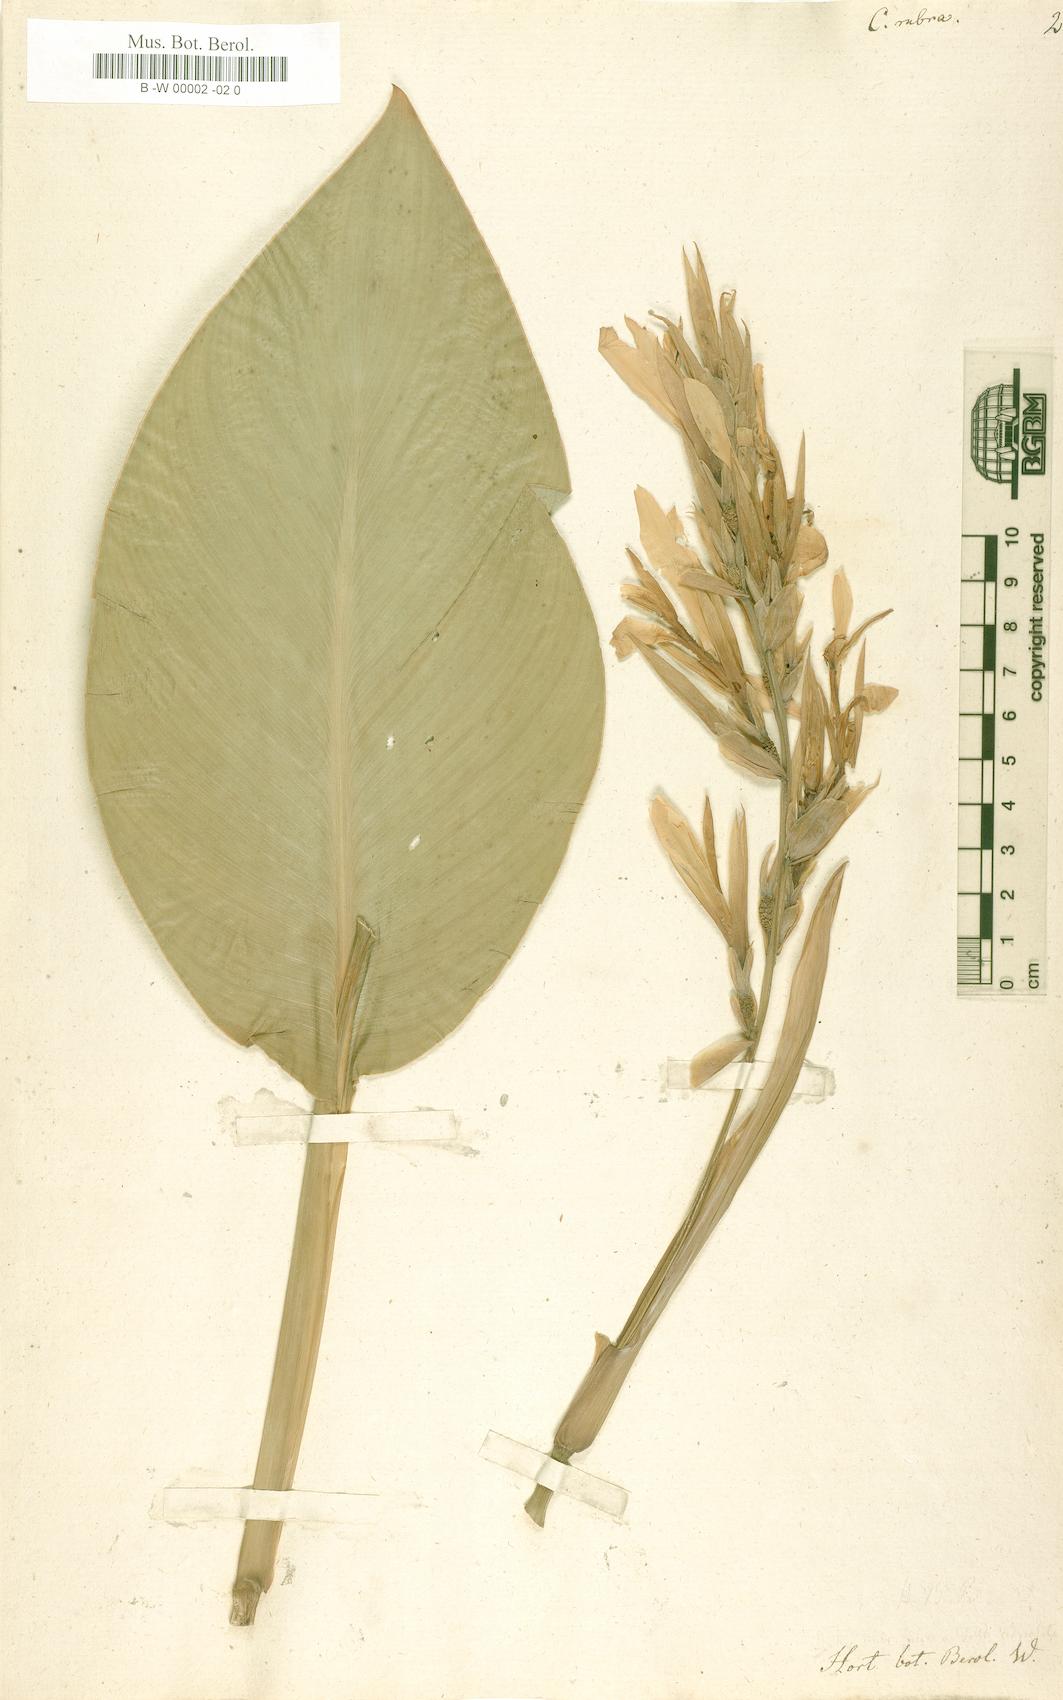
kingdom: Plantae
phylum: Tracheophyta
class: Liliopsida
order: Zingiberales
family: Cannaceae
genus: Canna
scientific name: Canna indica
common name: Indian shot
